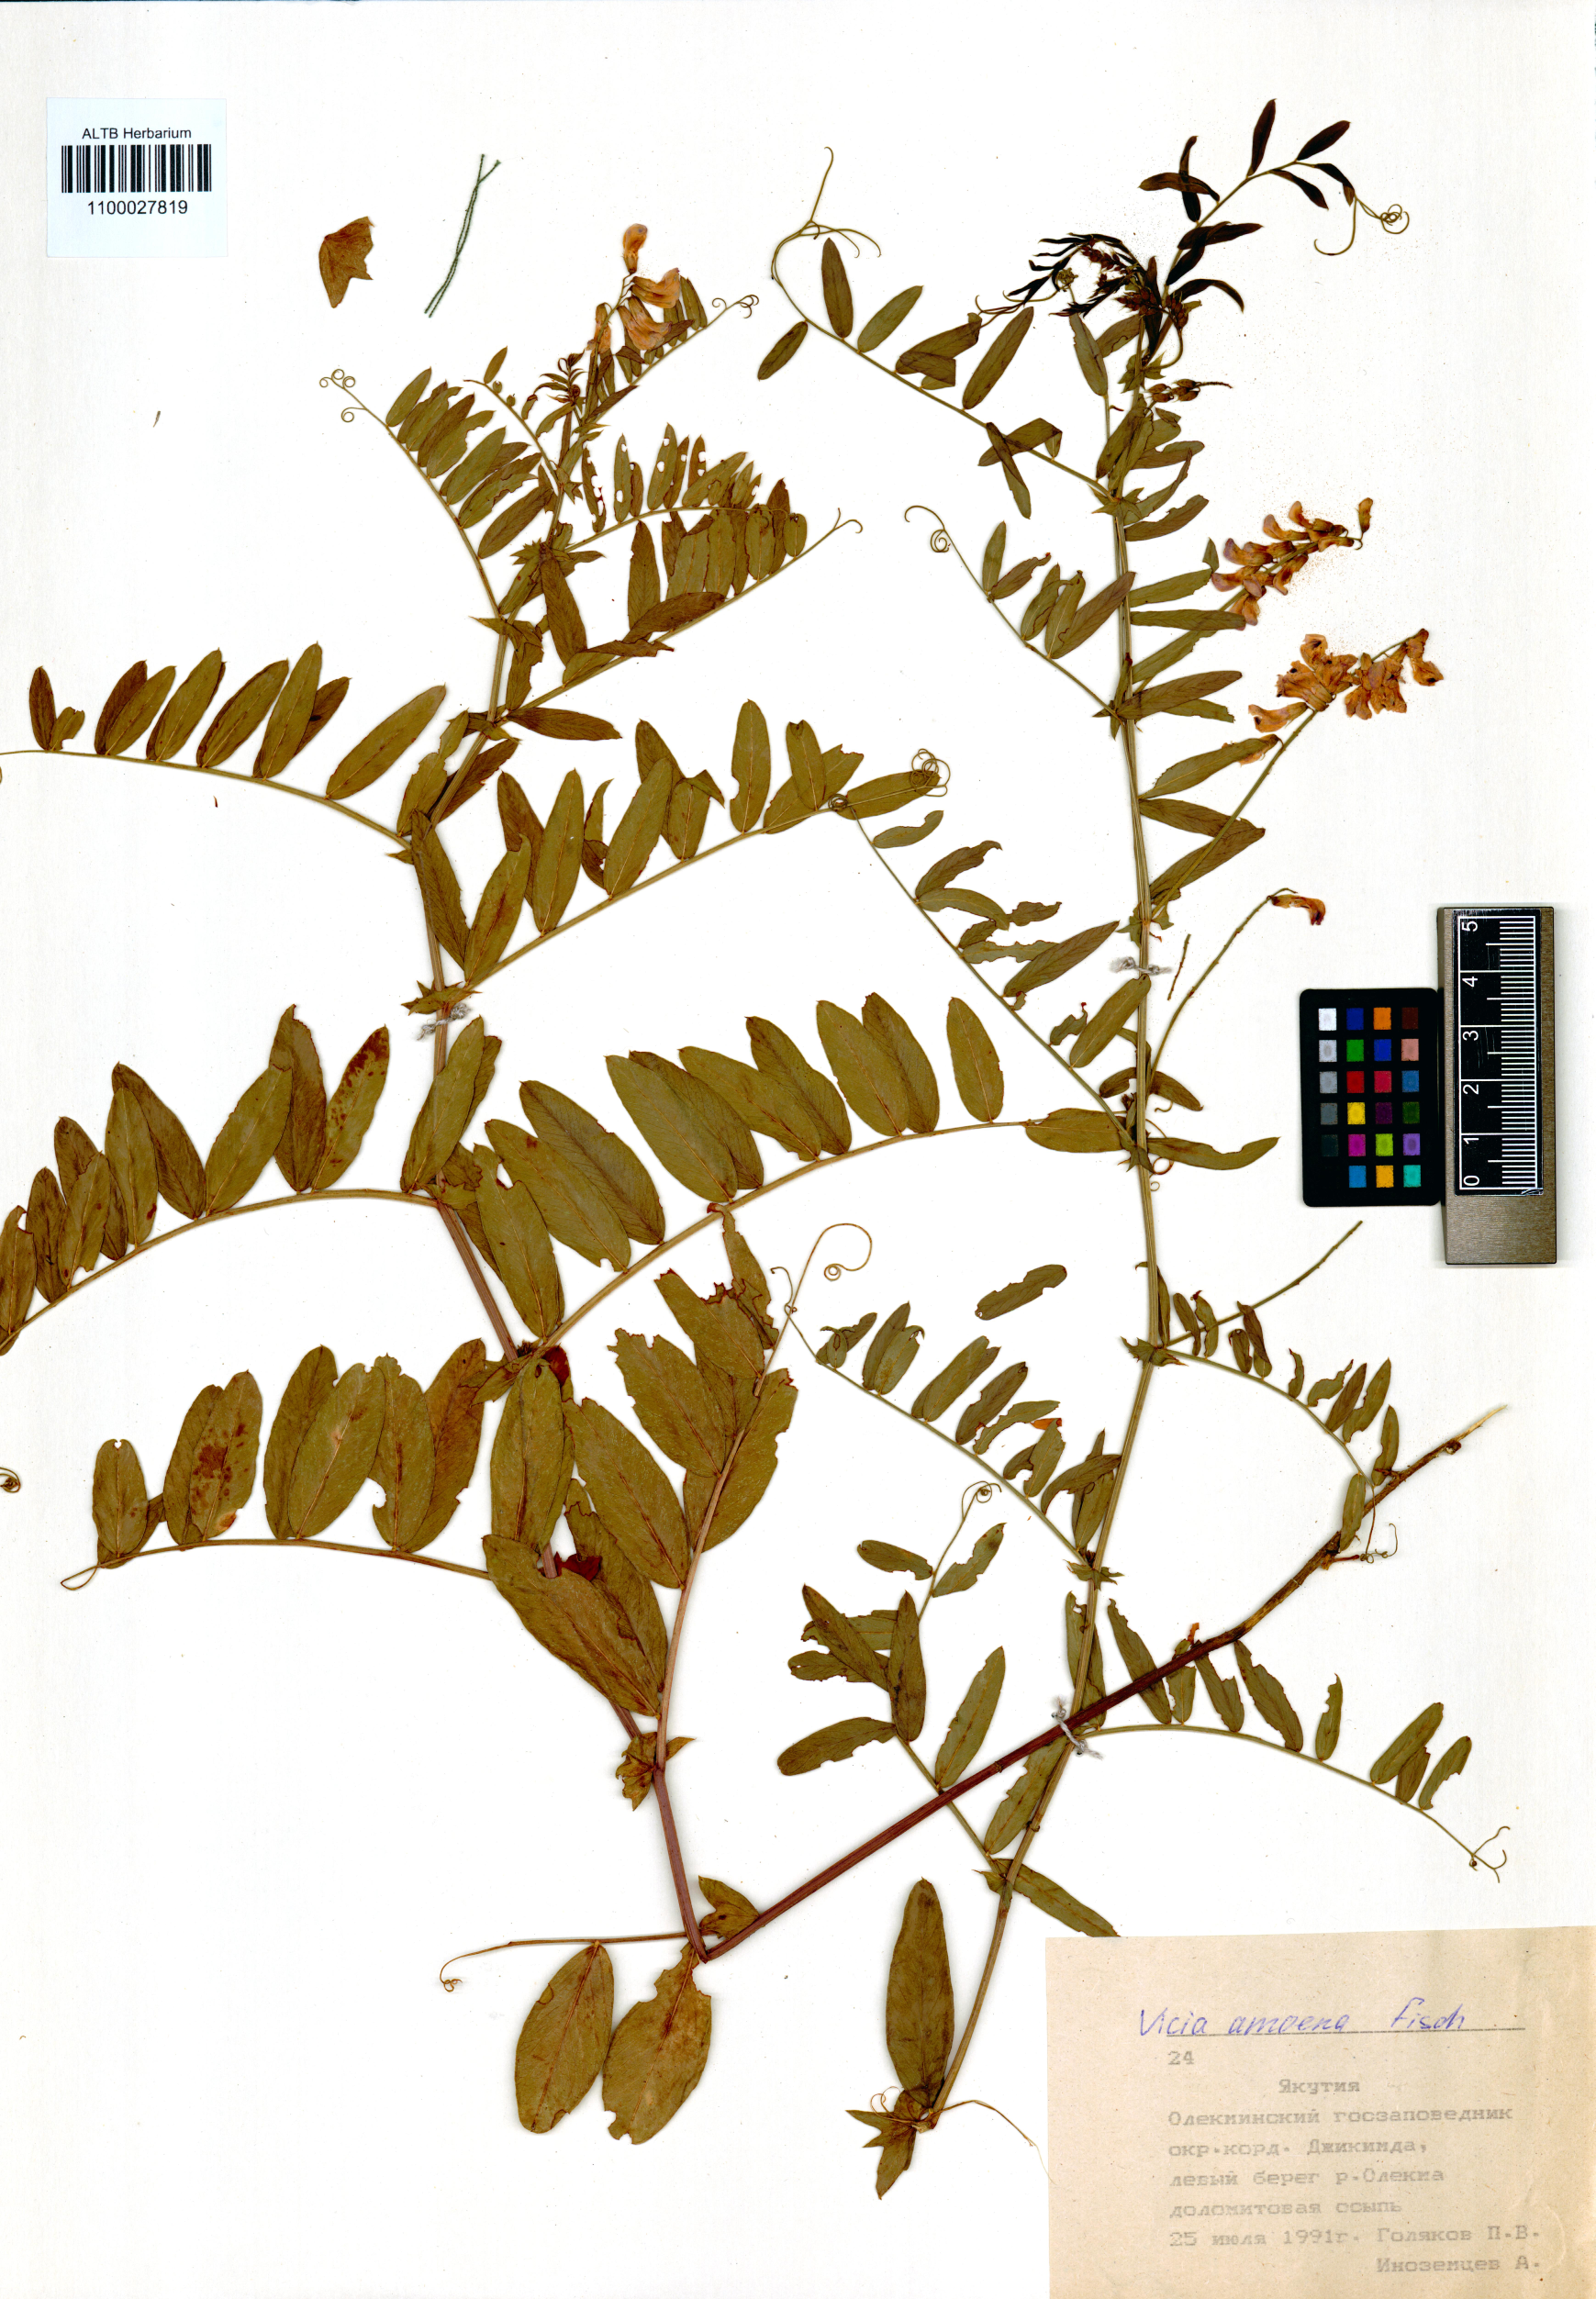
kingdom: Plantae
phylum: Tracheophyta
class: Magnoliopsida
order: Fabales
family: Fabaceae
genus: Vicia
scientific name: Vicia amoena
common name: Cheder ebs
